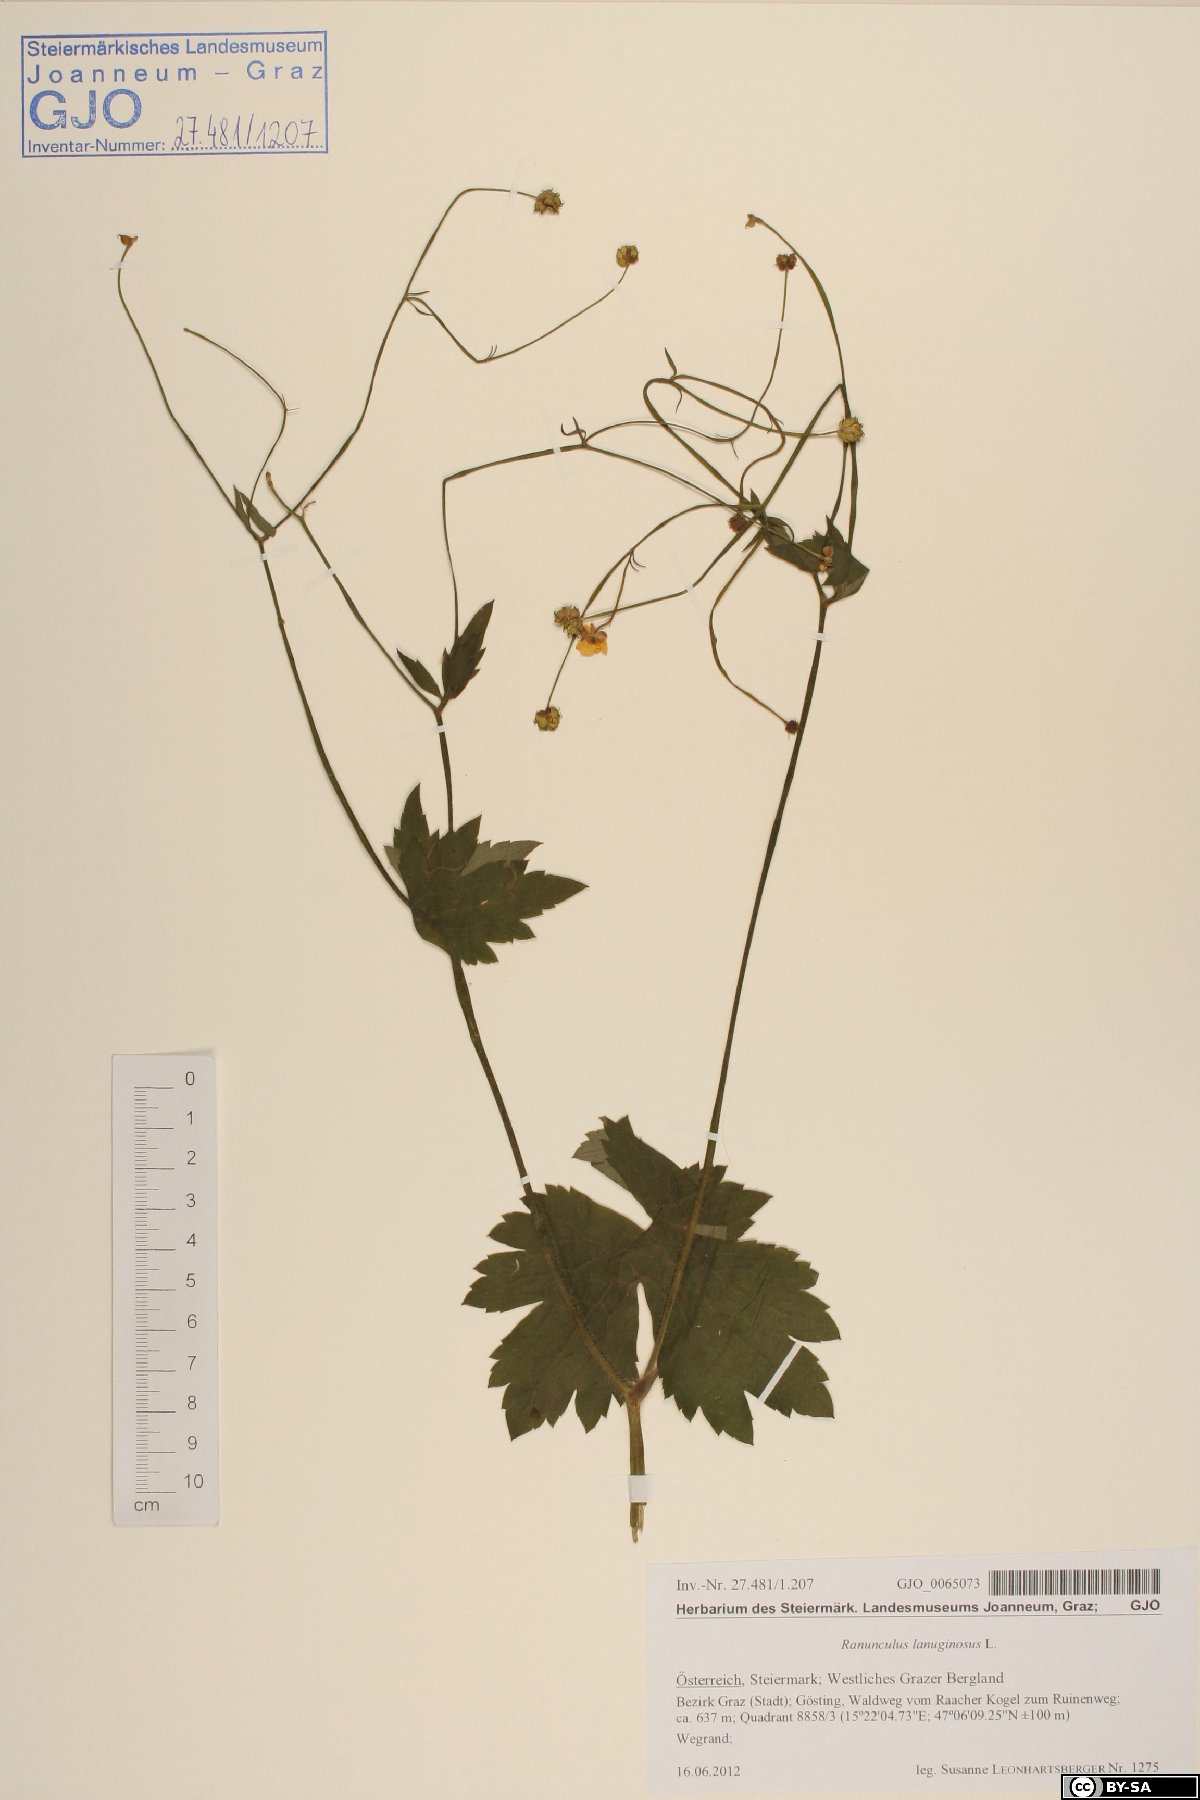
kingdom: Plantae
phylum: Tracheophyta
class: Magnoliopsida
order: Ranunculales
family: Ranunculaceae
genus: Ranunculus
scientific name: Ranunculus lanuginosus
